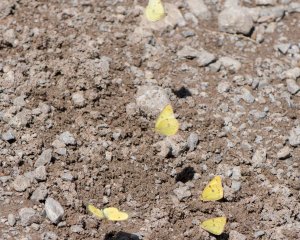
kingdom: Animalia
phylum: Arthropoda
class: Insecta
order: Lepidoptera
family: Pieridae
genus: Colias
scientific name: Colias philodice
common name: Clouded Sulphur
